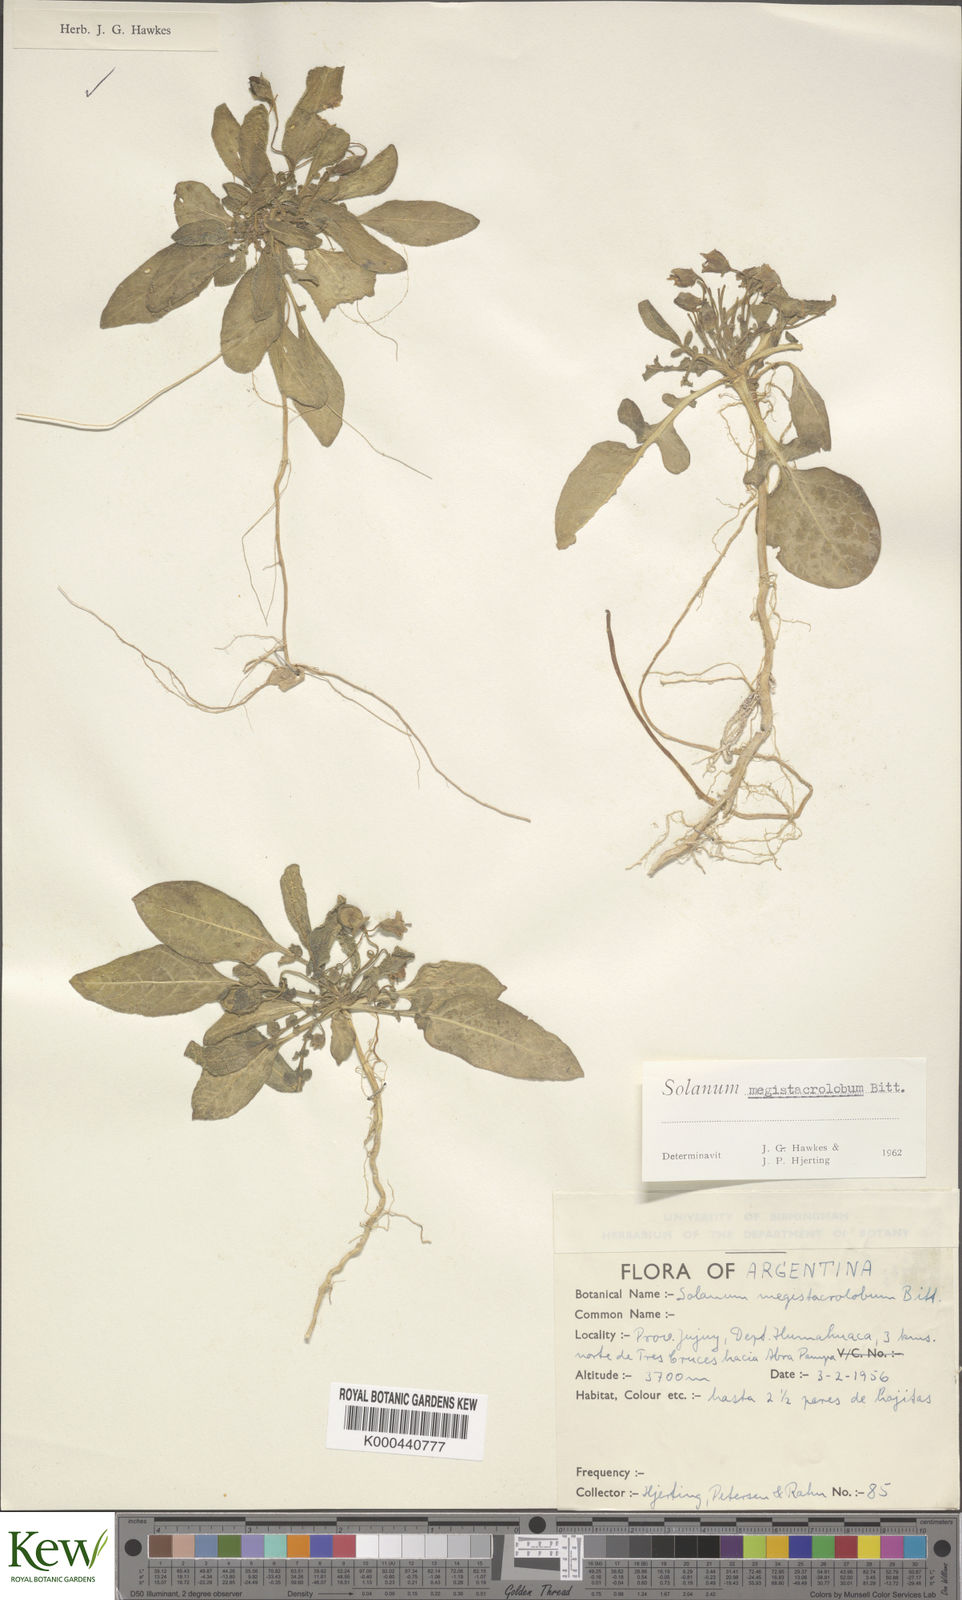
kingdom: Plantae
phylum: Tracheophyta
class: Magnoliopsida
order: Solanales
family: Solanaceae
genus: Solanum
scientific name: Solanum boliviense
